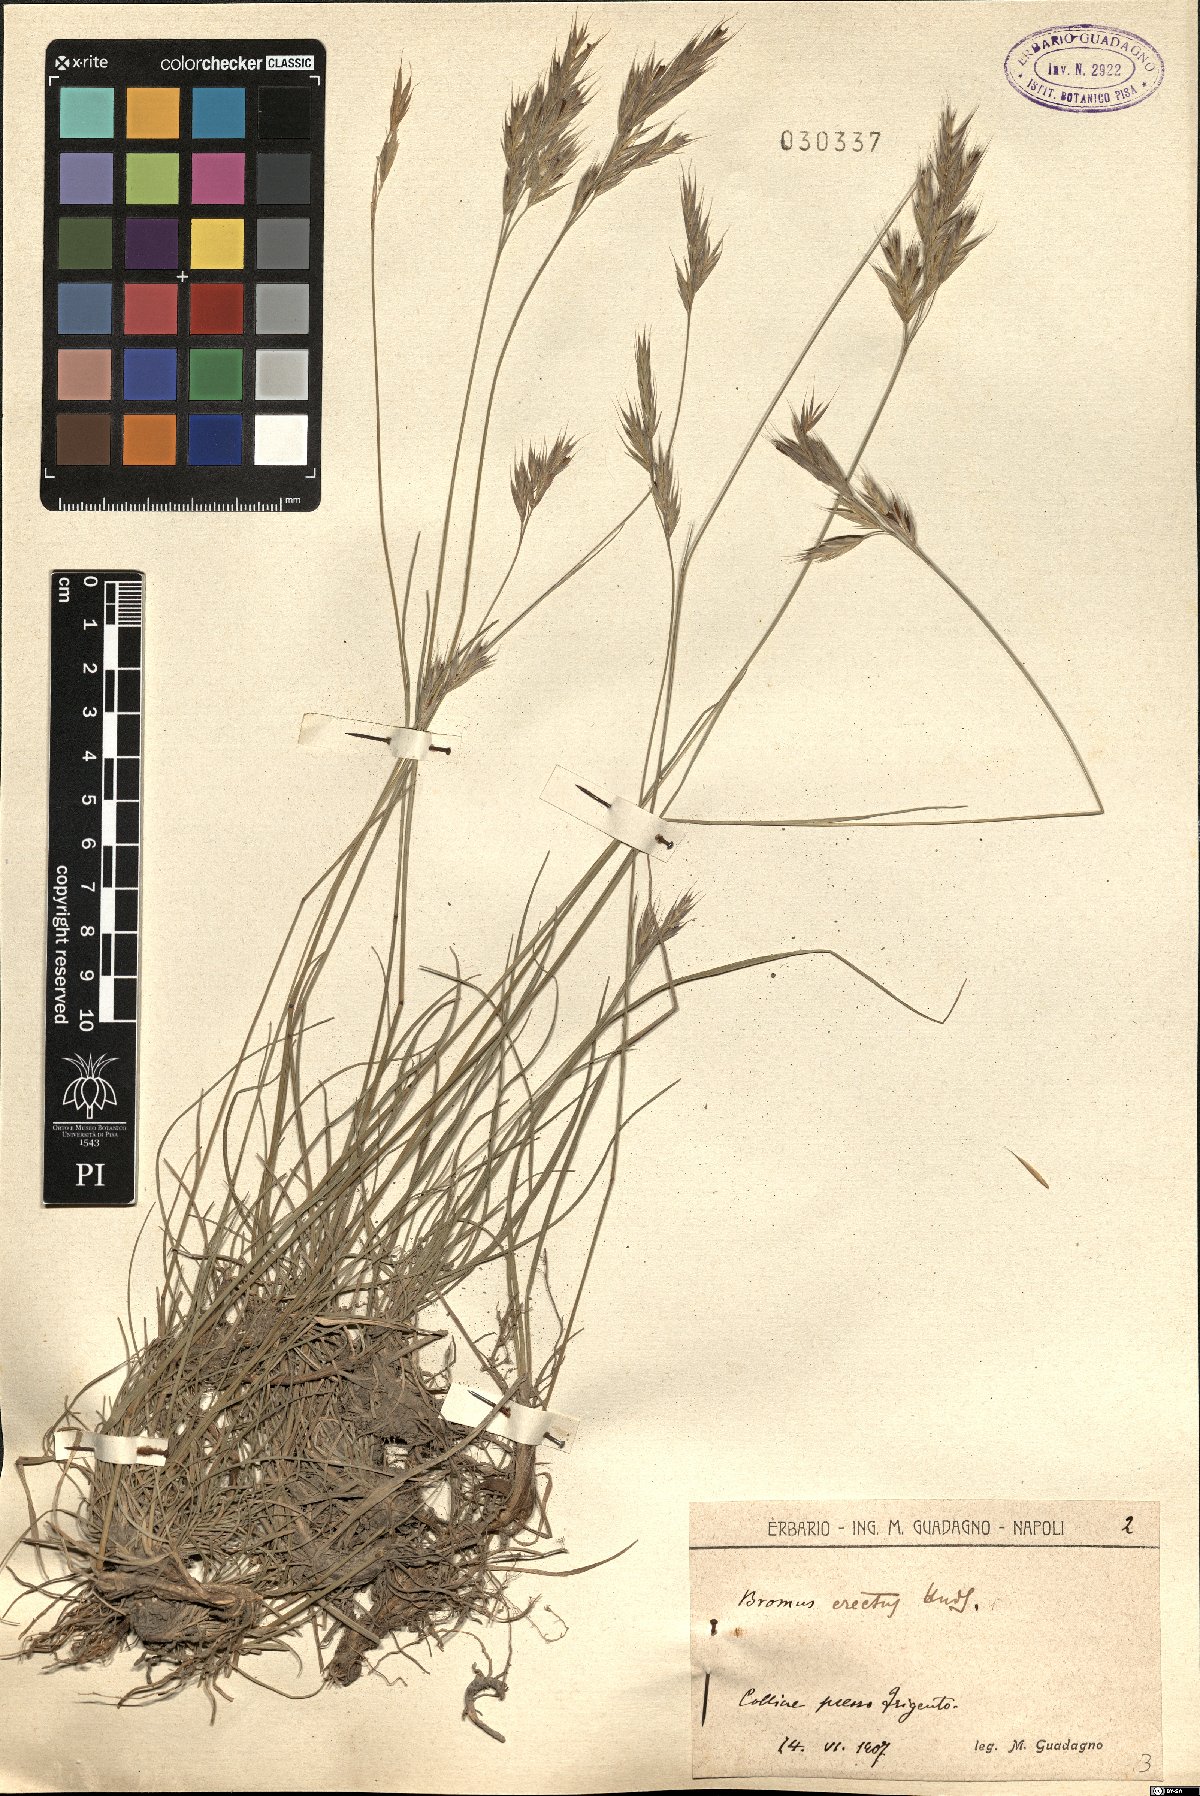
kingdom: Plantae
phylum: Tracheophyta
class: Liliopsida
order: Poales
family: Poaceae
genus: Bromus
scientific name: Bromus erectus
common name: Erect brome
